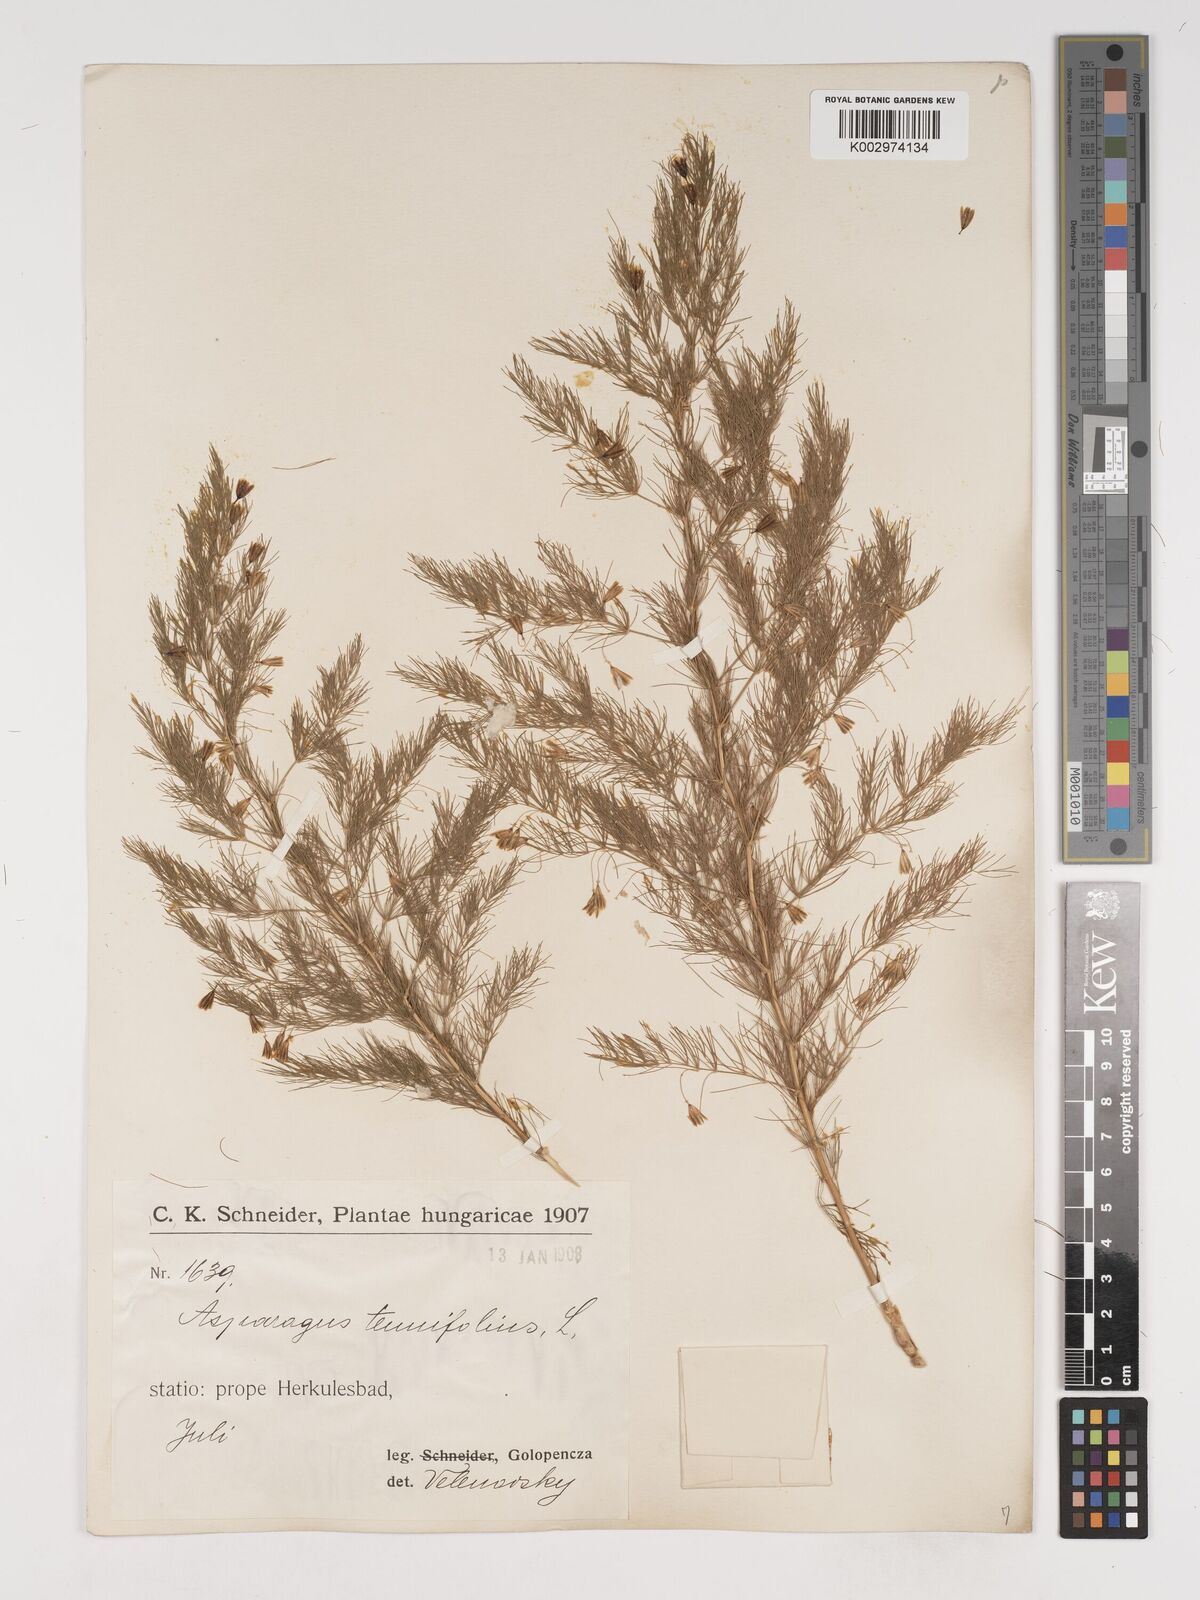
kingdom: Plantae
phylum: Tracheophyta
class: Liliopsida
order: Asparagales
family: Asparagaceae
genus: Asparagus
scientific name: Asparagus tenuifolius
